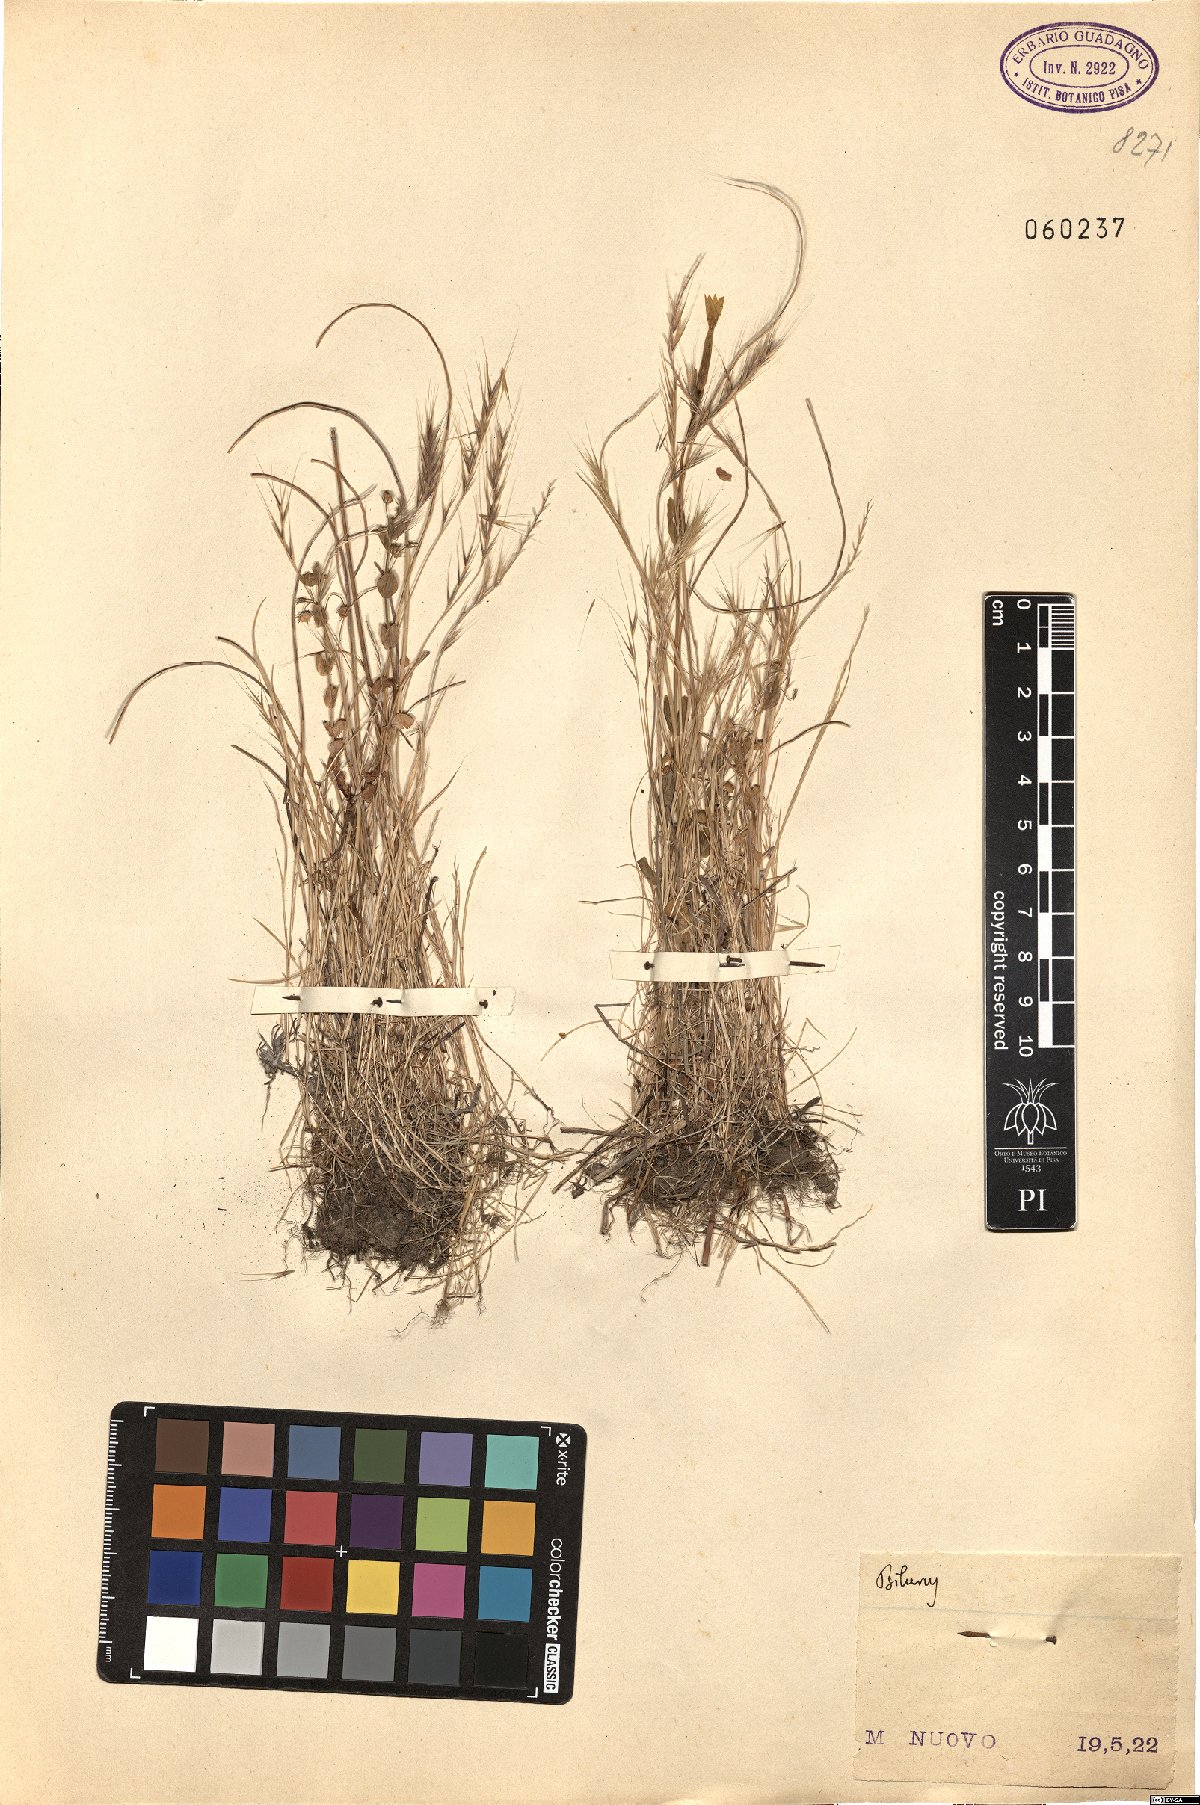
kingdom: Plantae
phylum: Tracheophyta
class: Liliopsida
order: Poales
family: Poaceae
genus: Festuca
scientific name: Festuca
